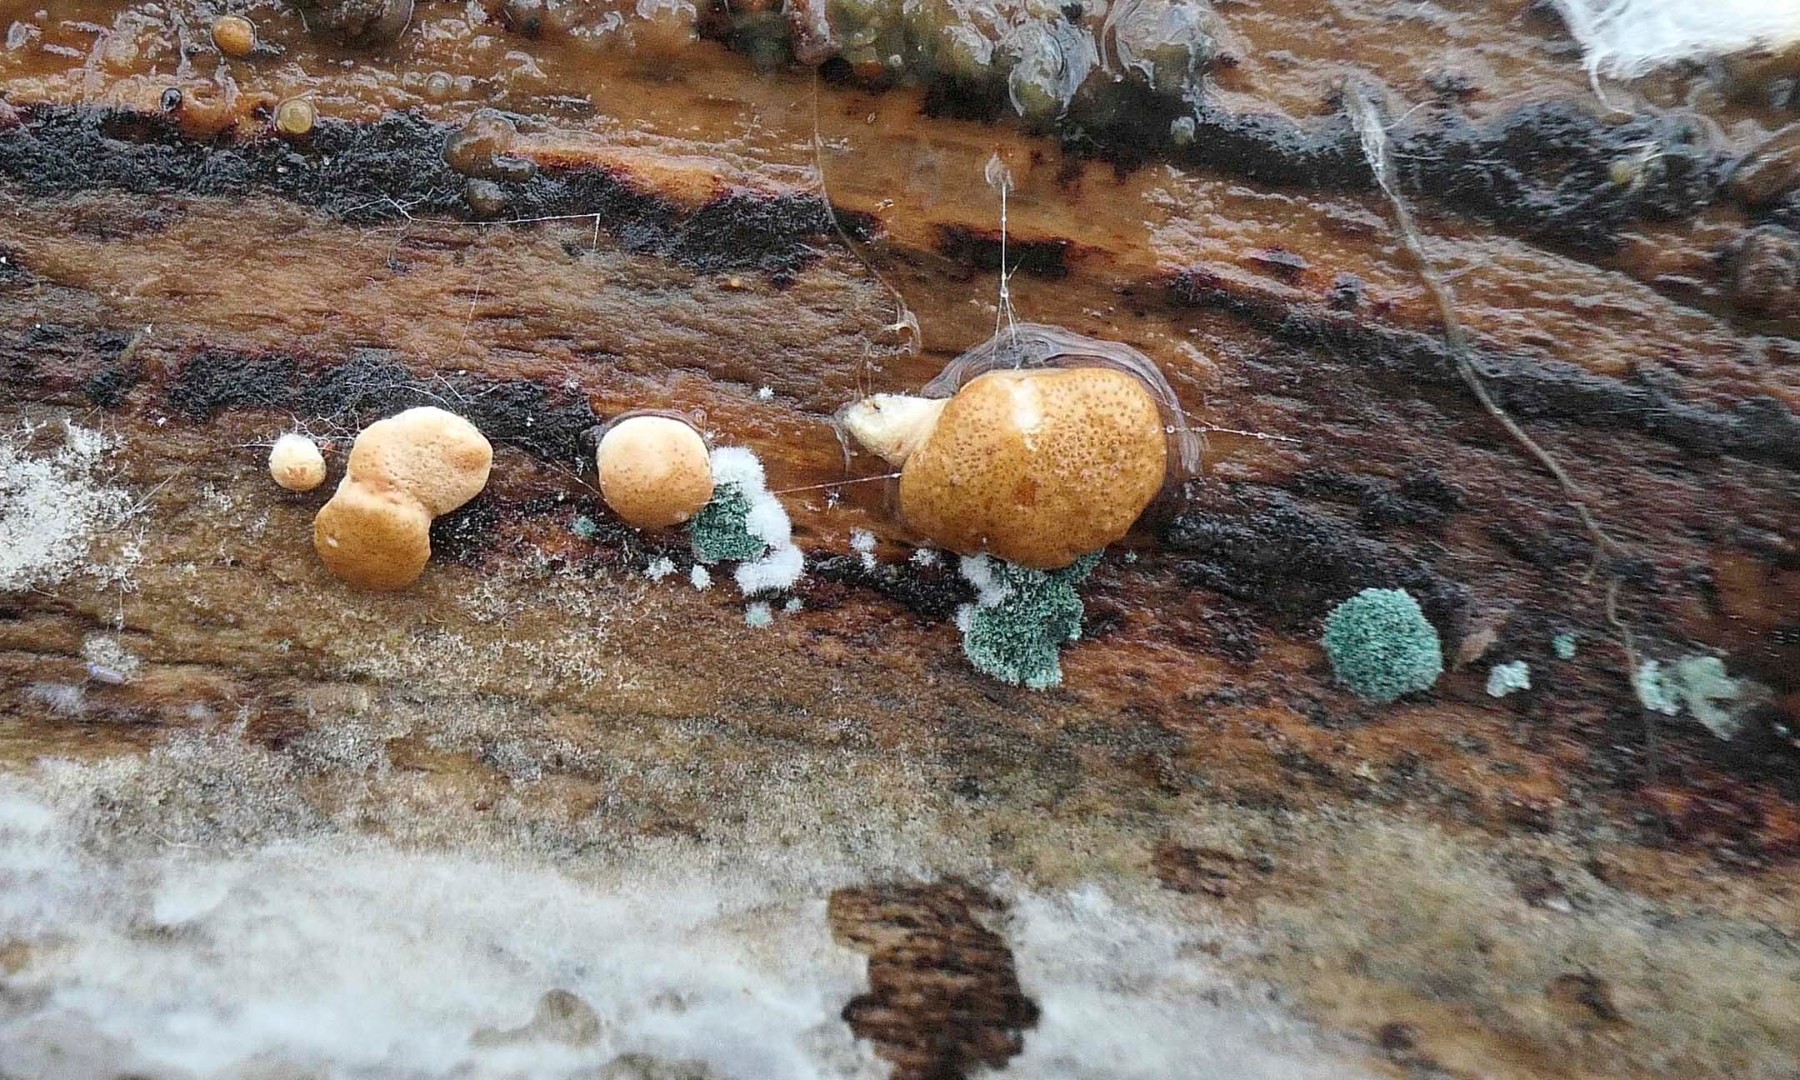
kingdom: Fungi
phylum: Ascomycota
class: Sordariomycetes
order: Hypocreales
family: Hypocreaceae
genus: Trichoderma
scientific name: Trichoderma europaeum
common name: rosabrun kødkerne
